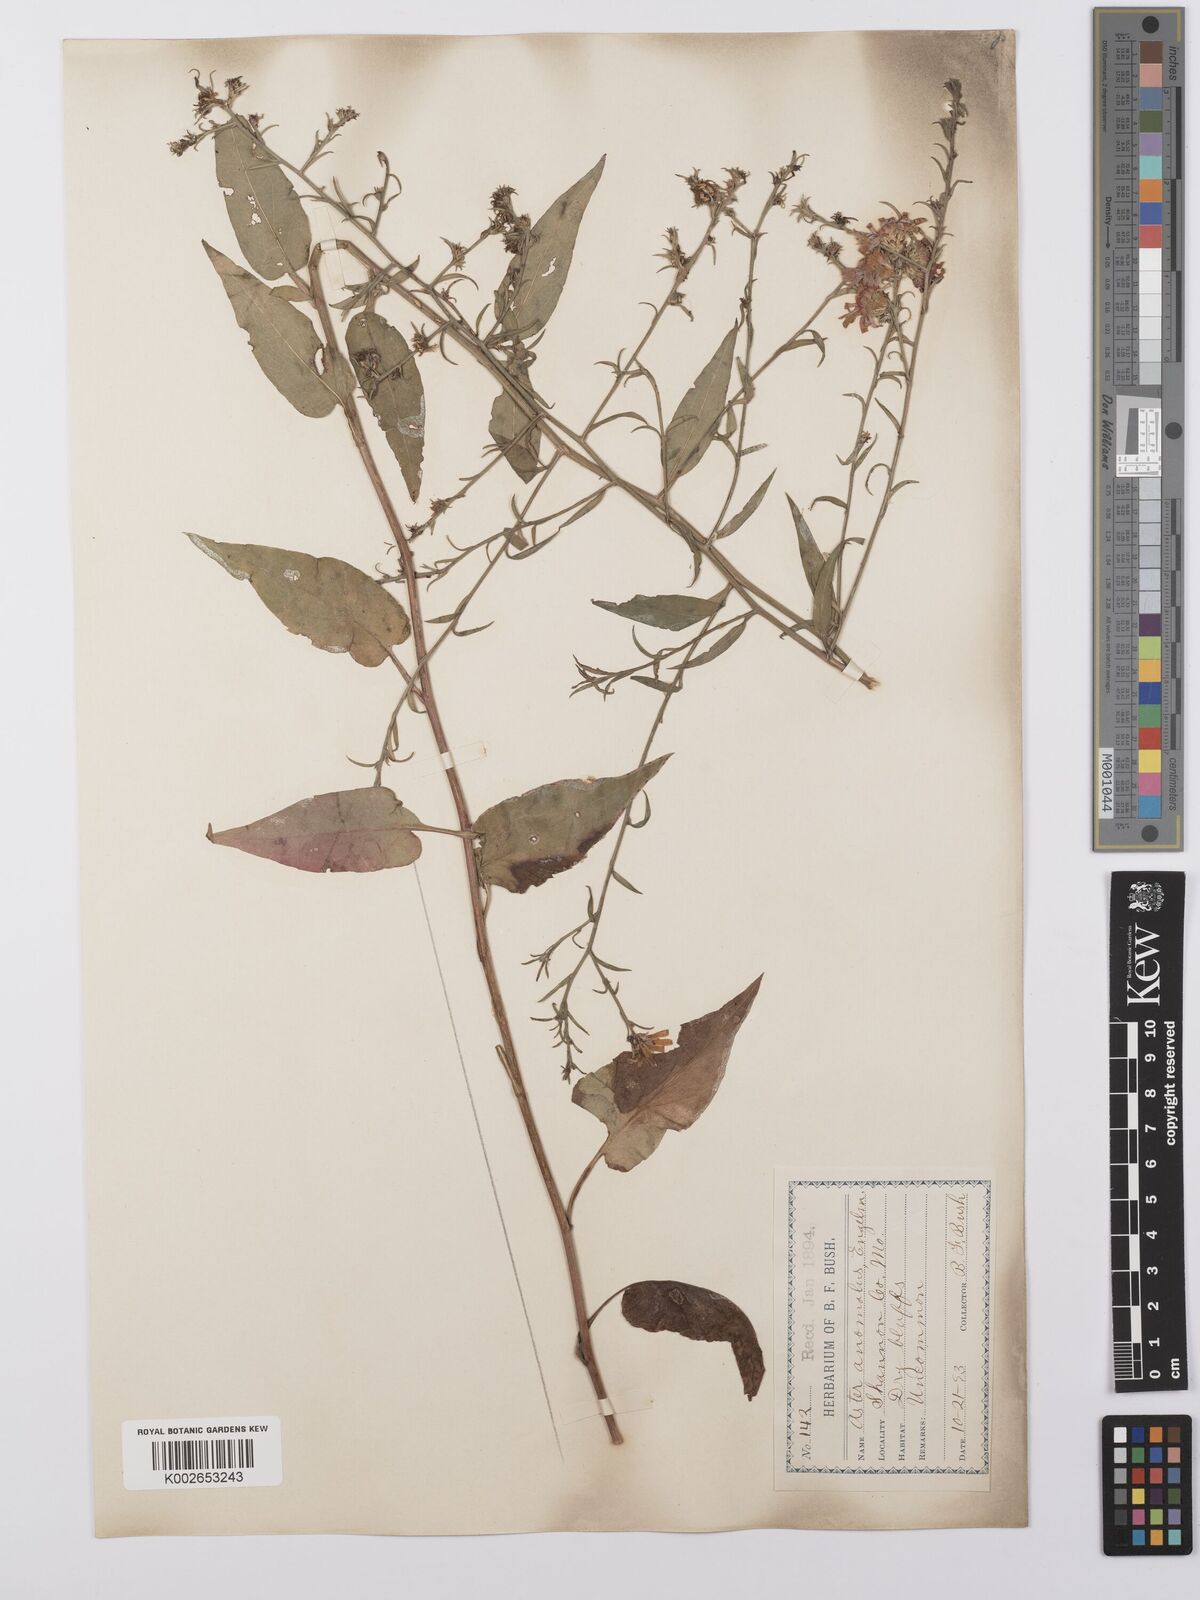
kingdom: Plantae
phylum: Tracheophyta
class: Magnoliopsida
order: Asterales
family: Asteraceae
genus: Symphyotrichum
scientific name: Symphyotrichum anomalum
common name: Many-ray aster
